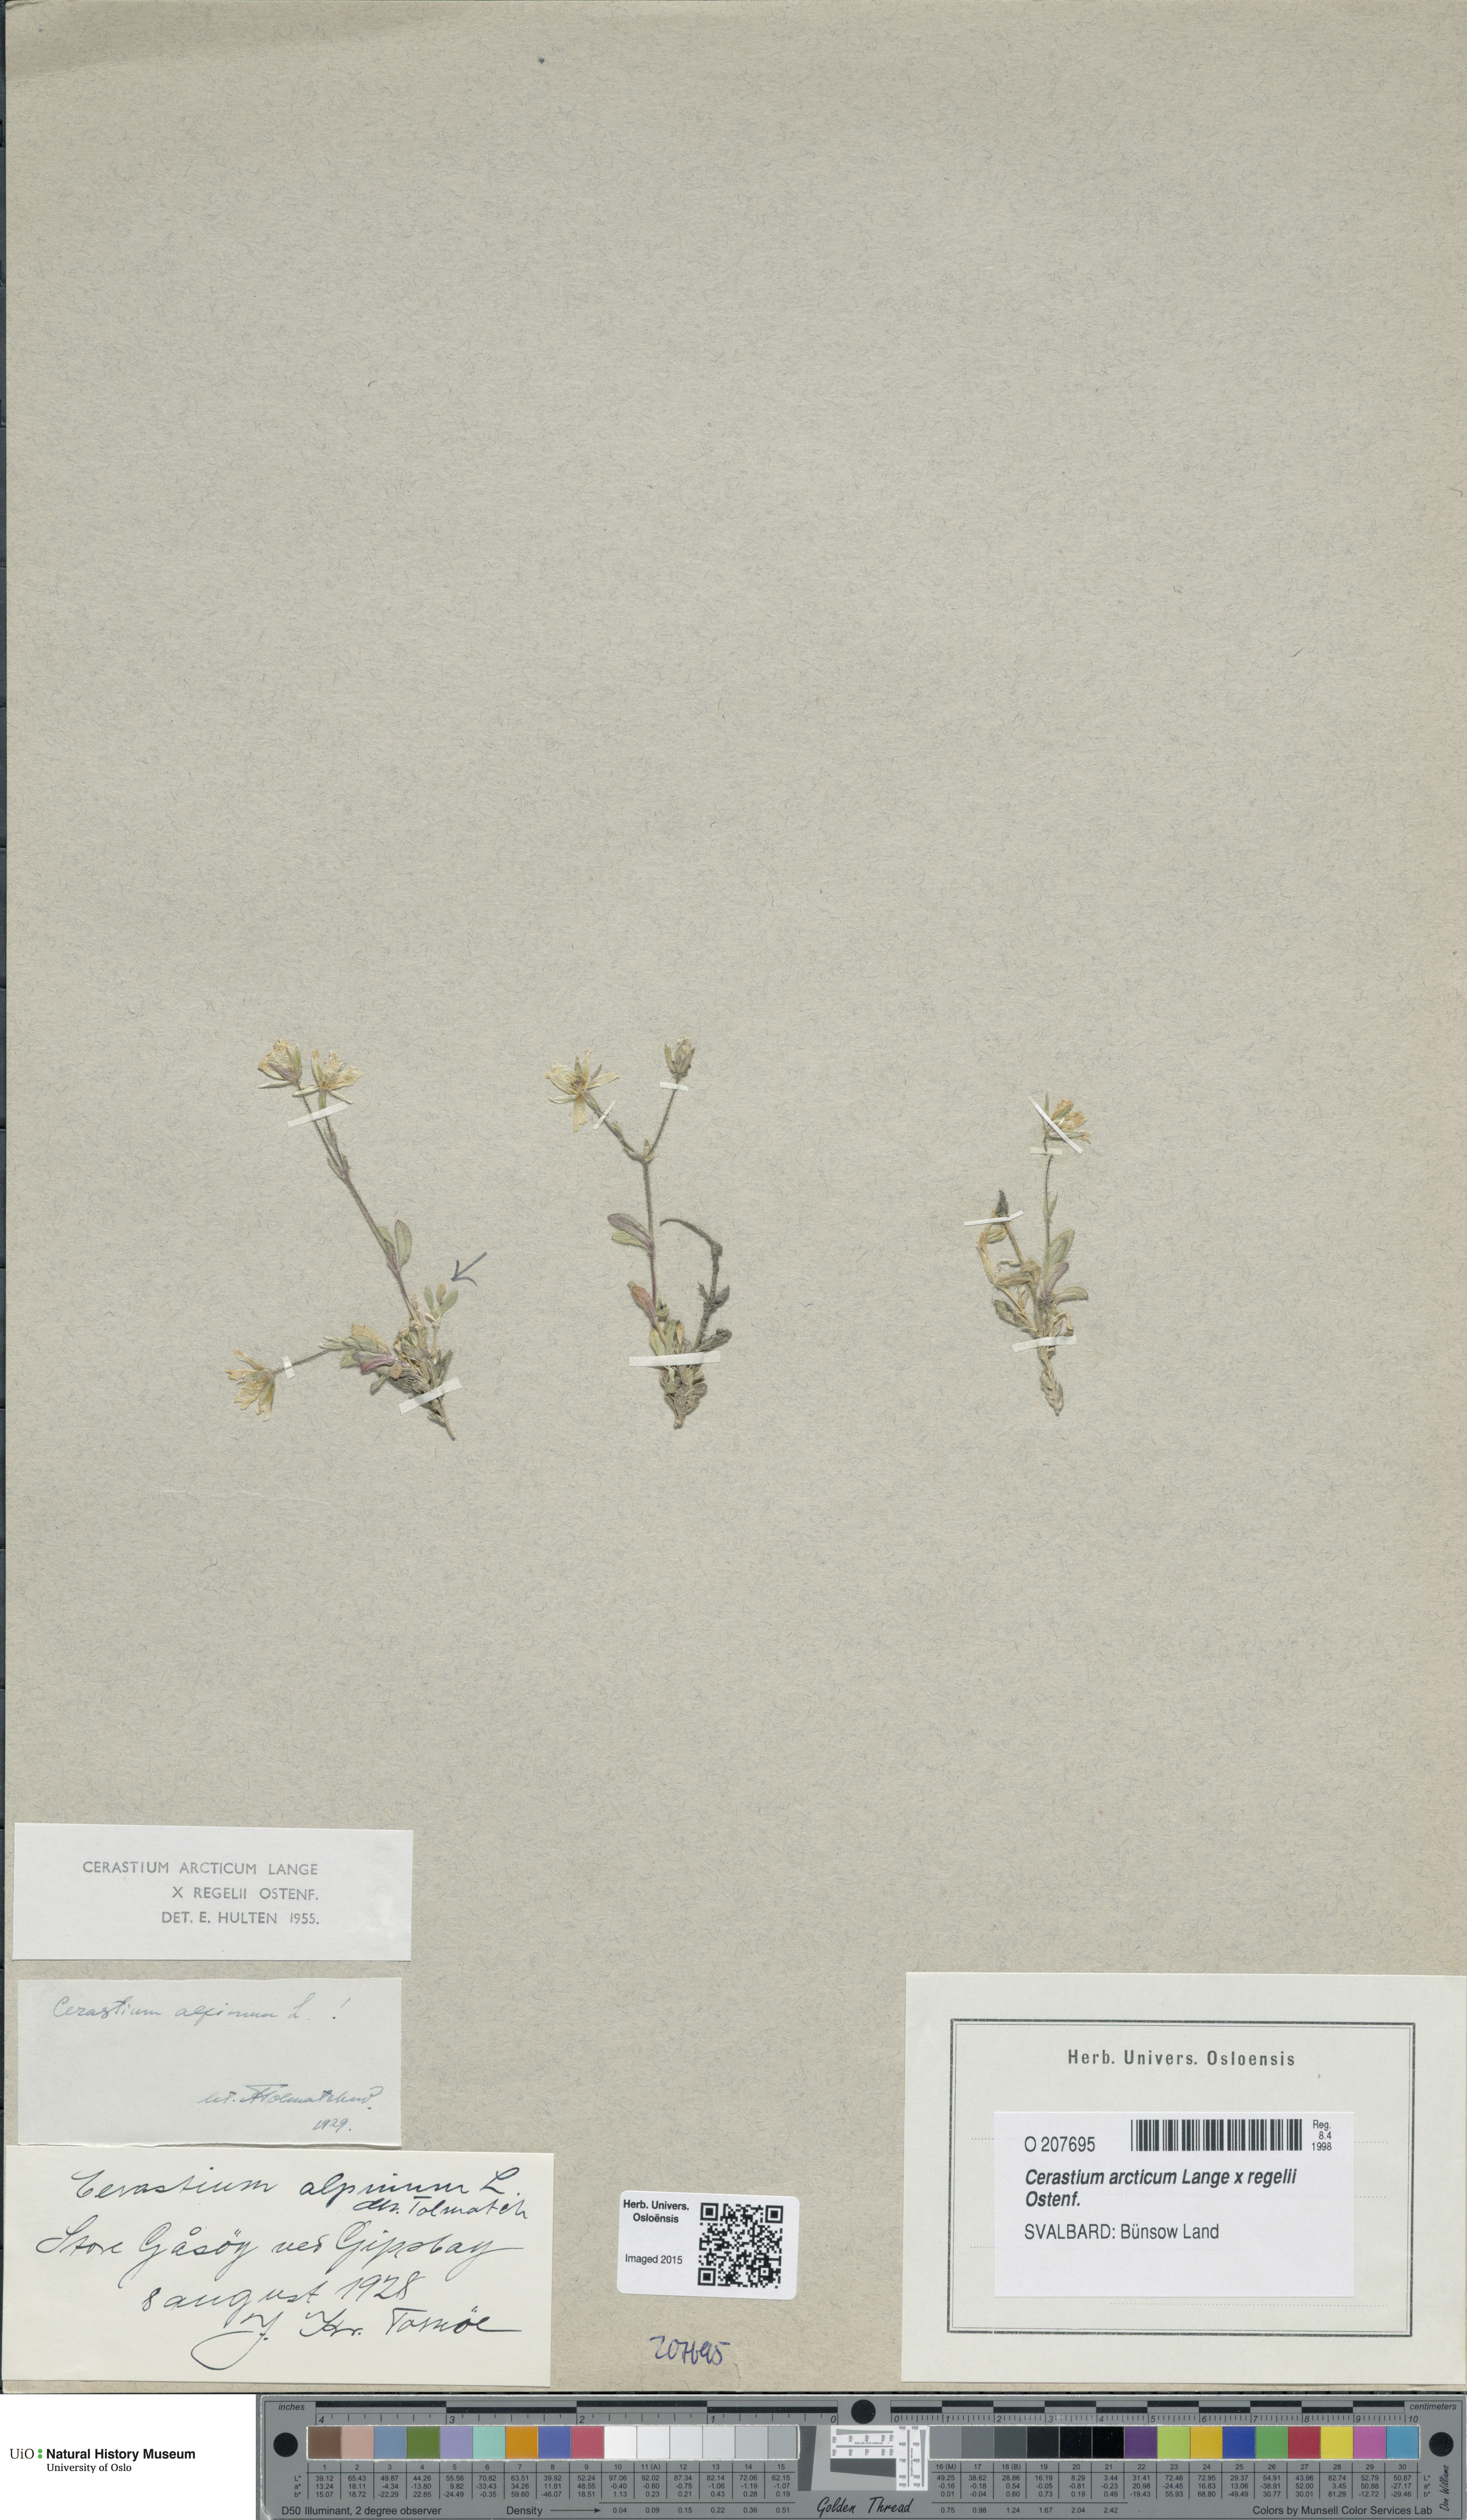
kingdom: Plantae
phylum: Tracheophyta
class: Magnoliopsida
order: Caryophyllales
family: Caryophyllaceae
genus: Cerastium
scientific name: Cerastium
